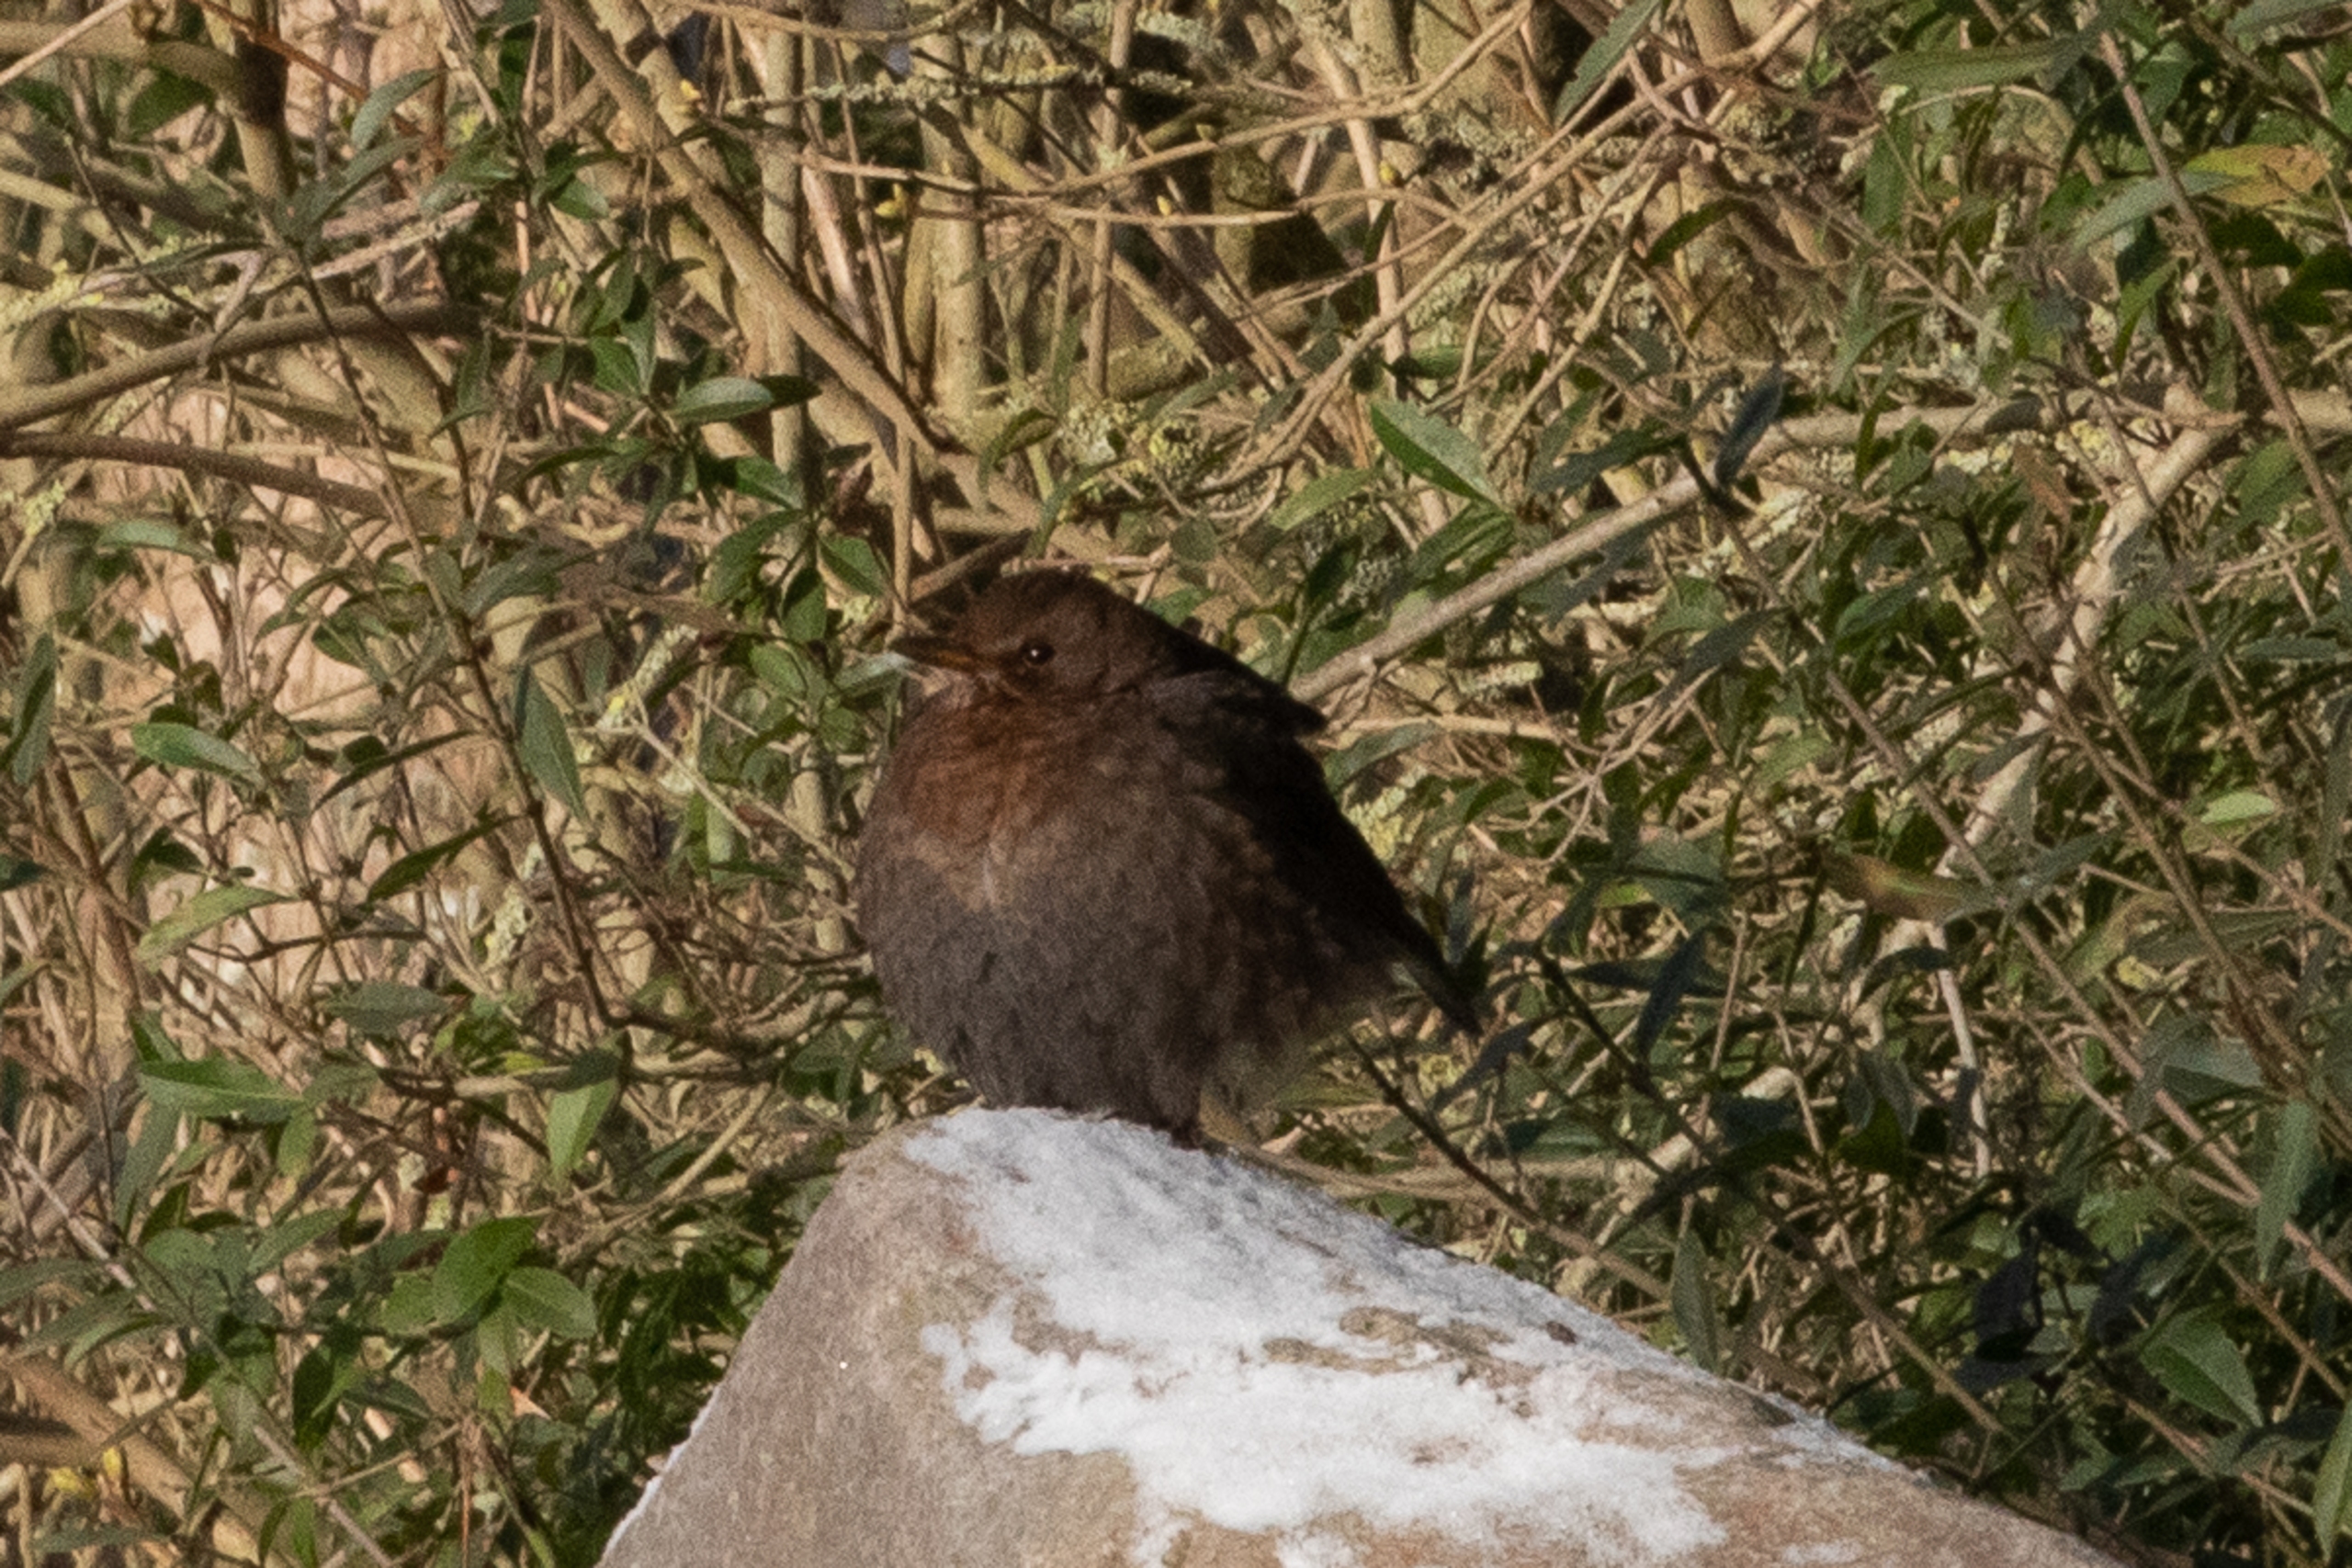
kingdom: Animalia
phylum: Chordata
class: Aves
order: Passeriformes
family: Turdidae
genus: Turdus
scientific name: Turdus merula
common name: Solsort
